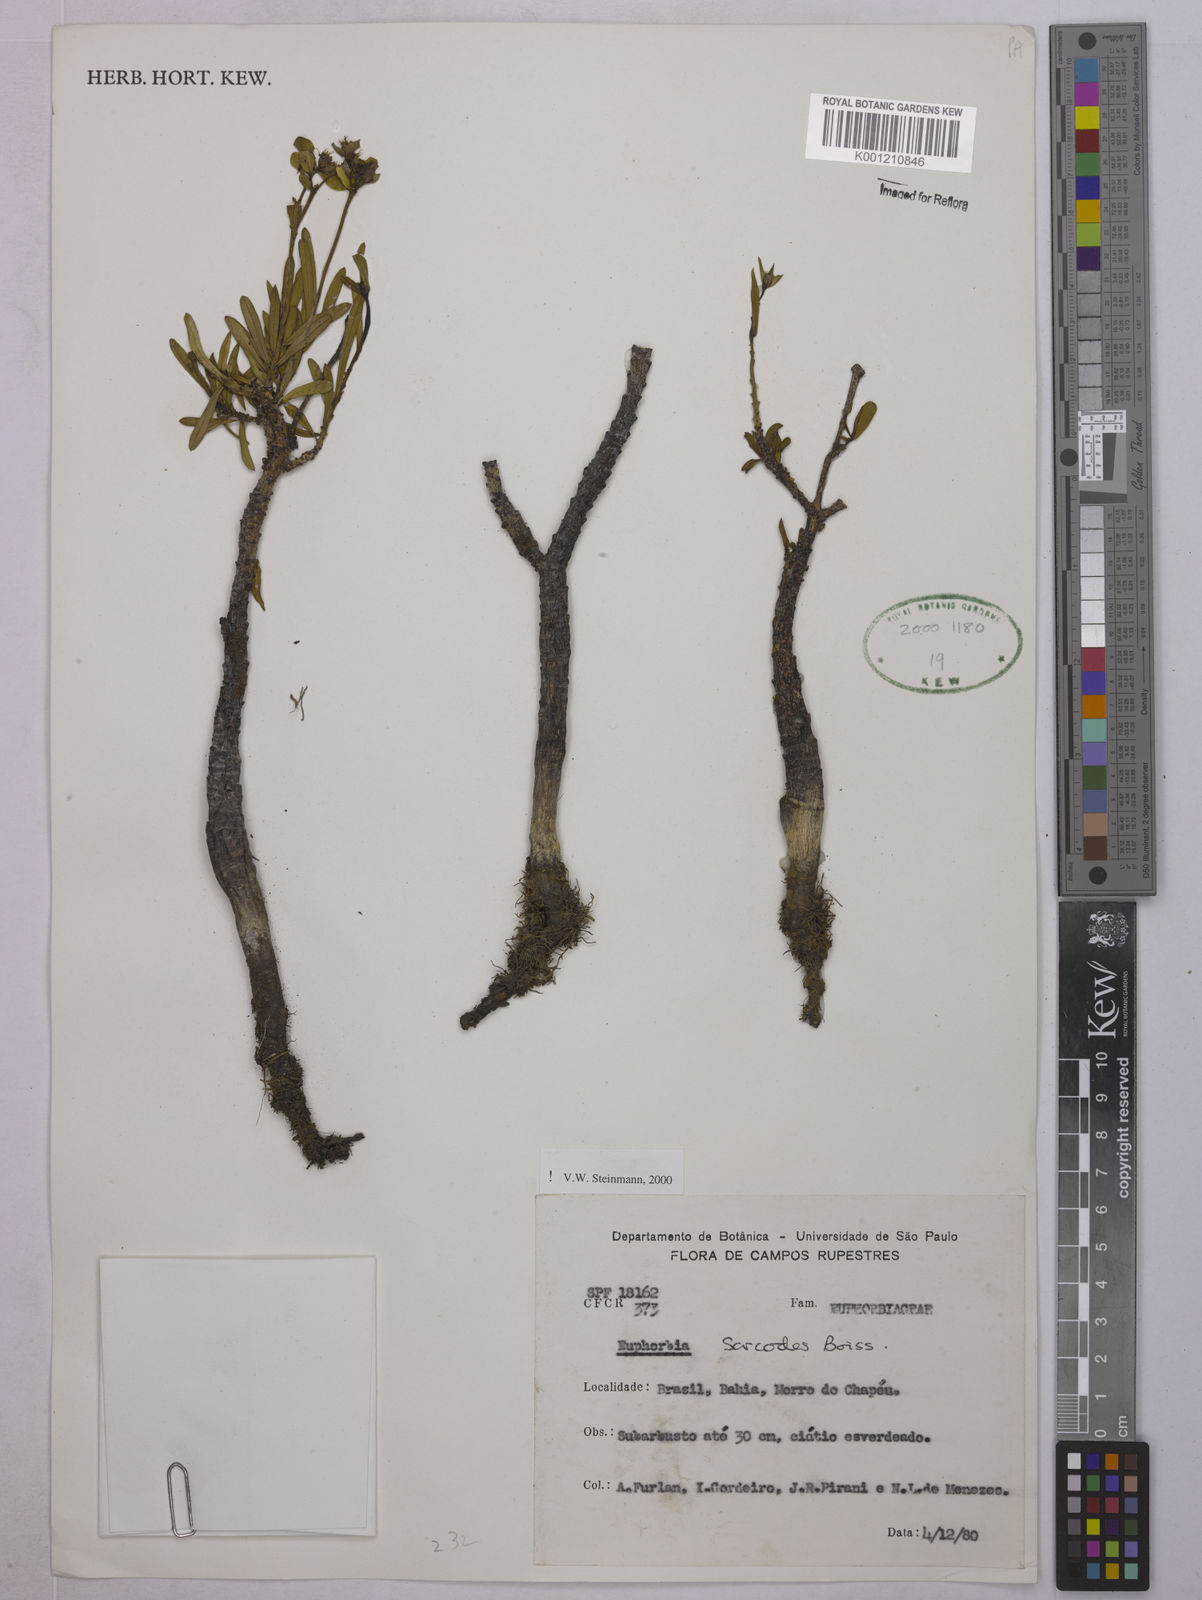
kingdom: Plantae
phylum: Tracheophyta
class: Magnoliopsida
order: Malpighiales
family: Euphorbiaceae
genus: Euphorbia
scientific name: Euphorbia sarcodes
